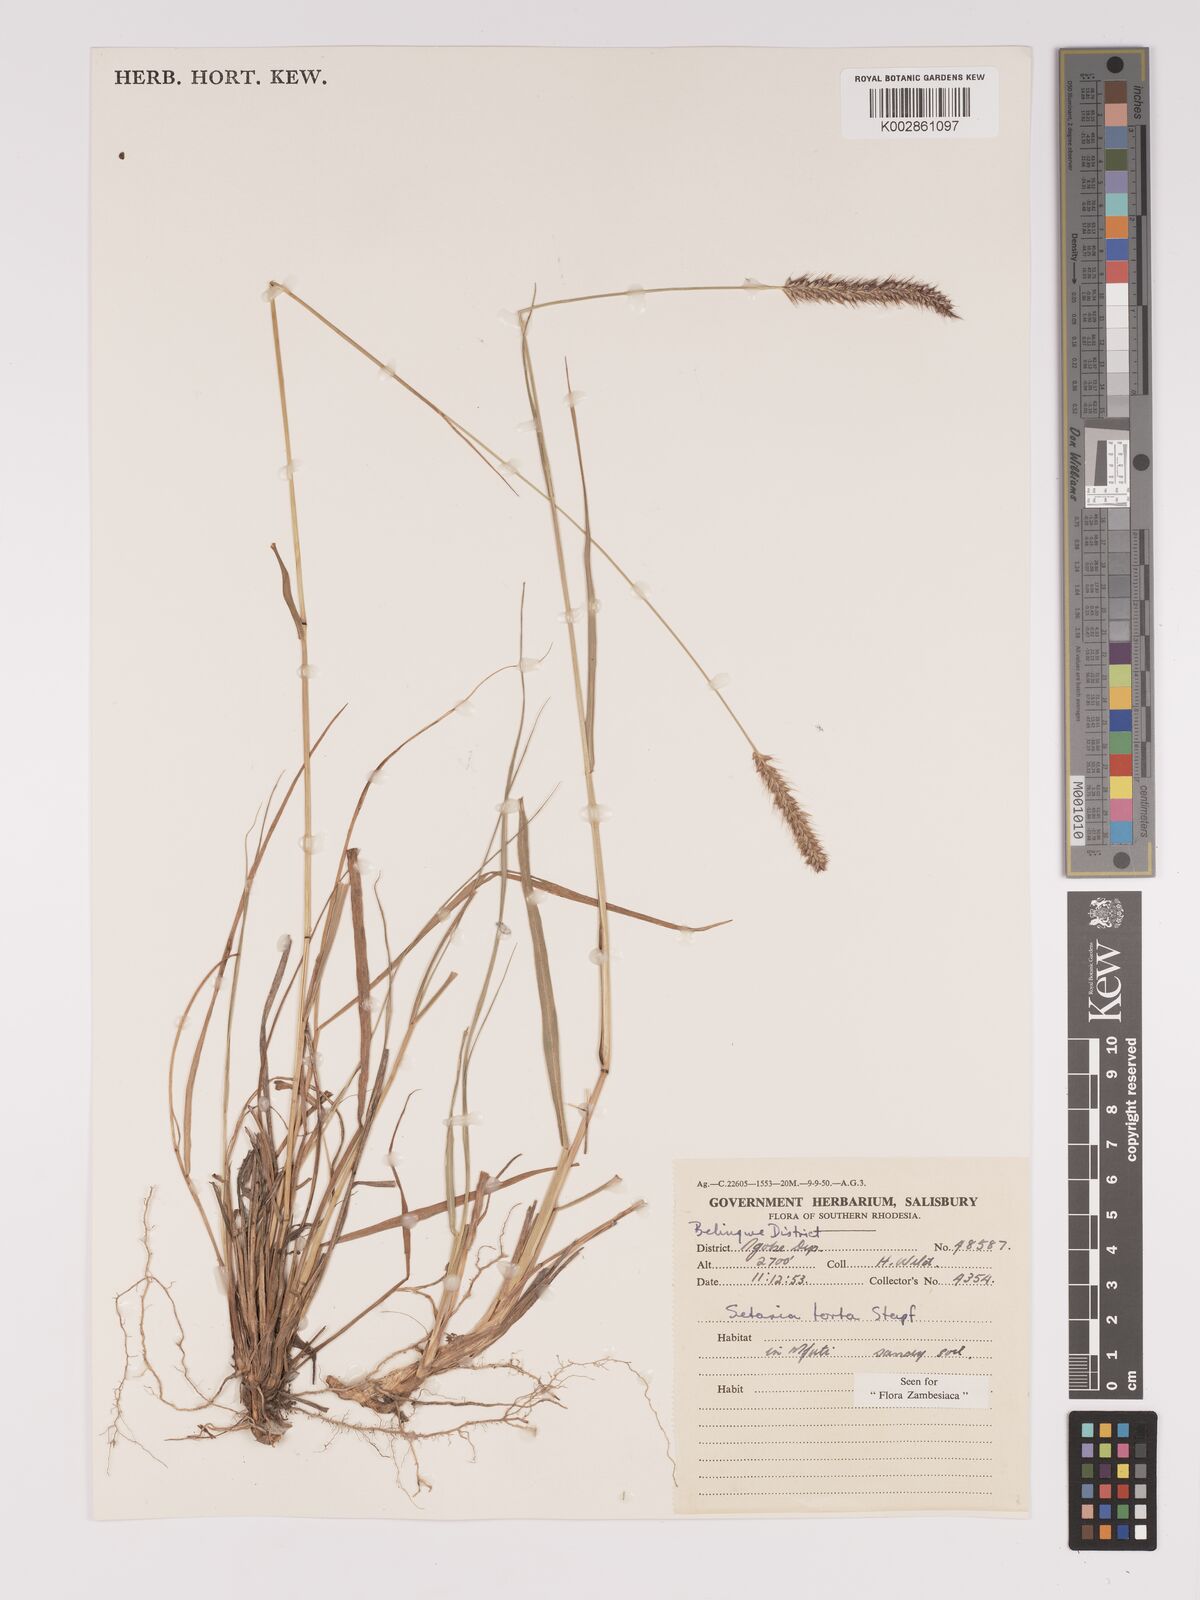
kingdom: Plantae
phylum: Tracheophyta
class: Liliopsida
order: Poales
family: Poaceae
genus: Setaria
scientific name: Setaria sphacelata
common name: African bristlegrass
